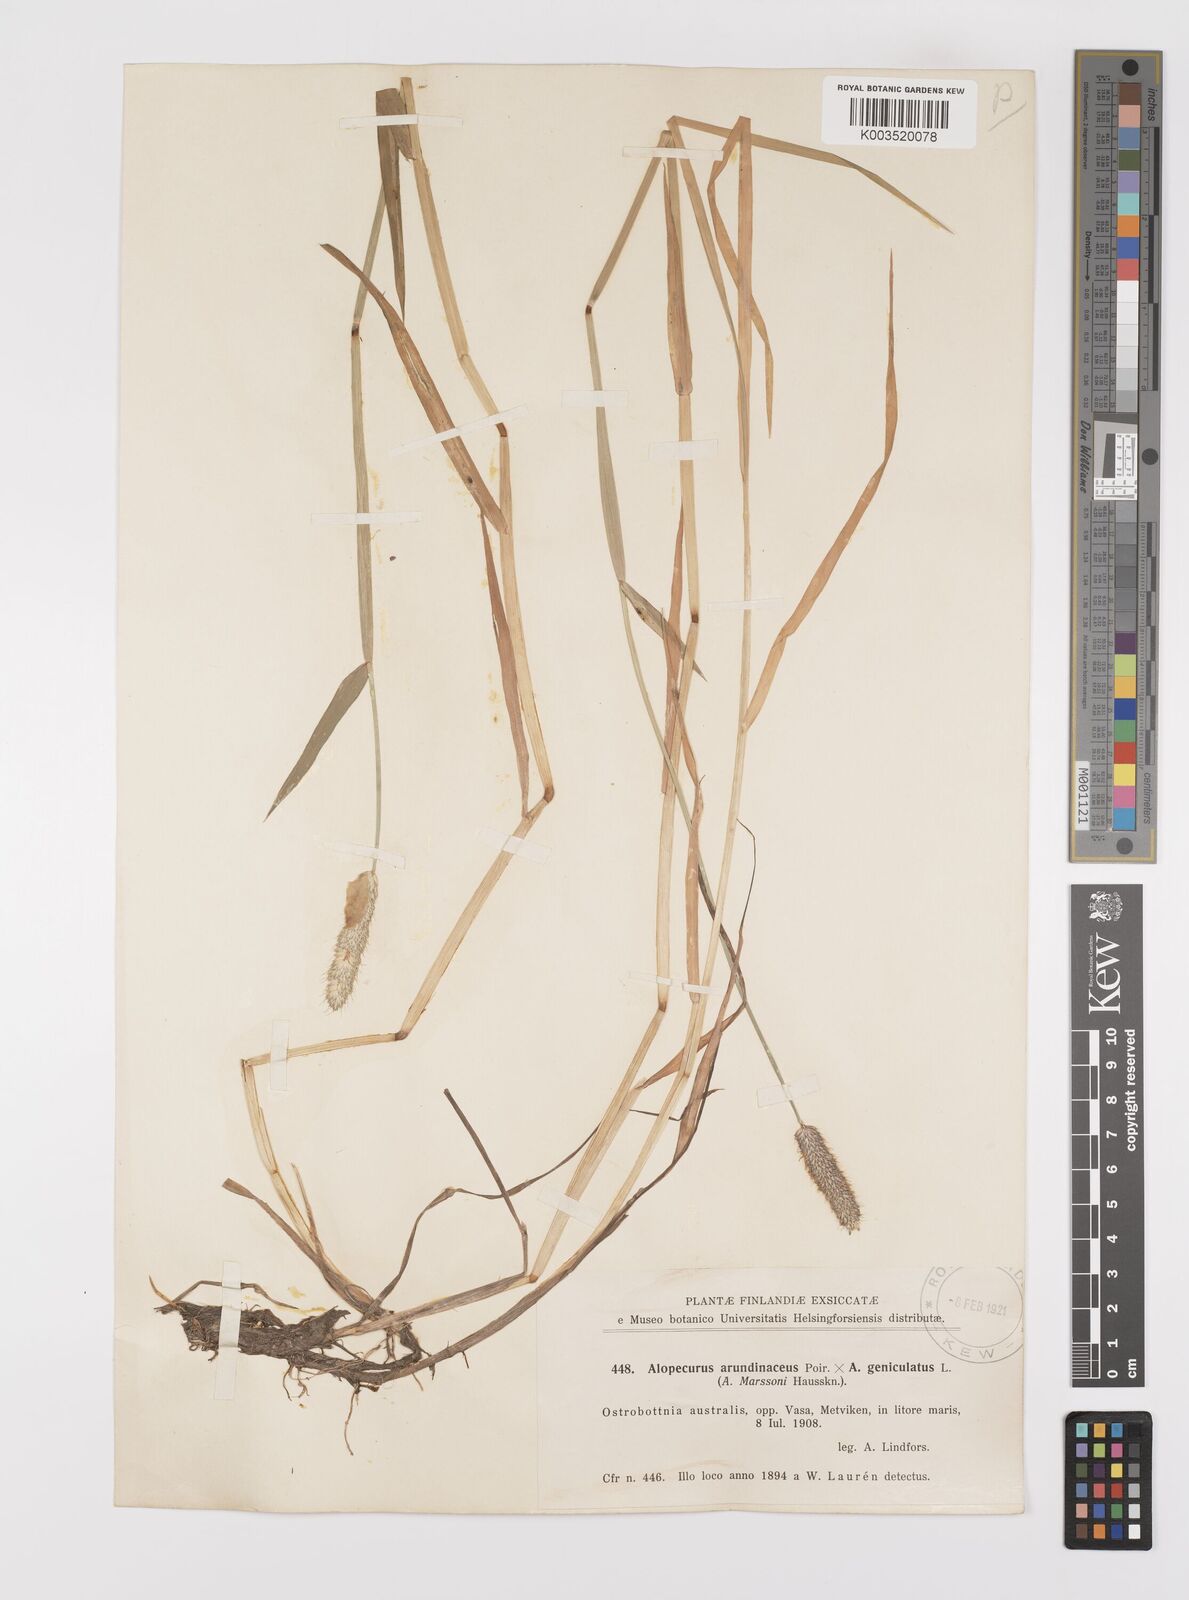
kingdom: Plantae
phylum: Tracheophyta
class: Liliopsida
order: Poales
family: Poaceae
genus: Alopecurus
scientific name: Alopecurus arundinaceus
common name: Creeping meadow foxtail
